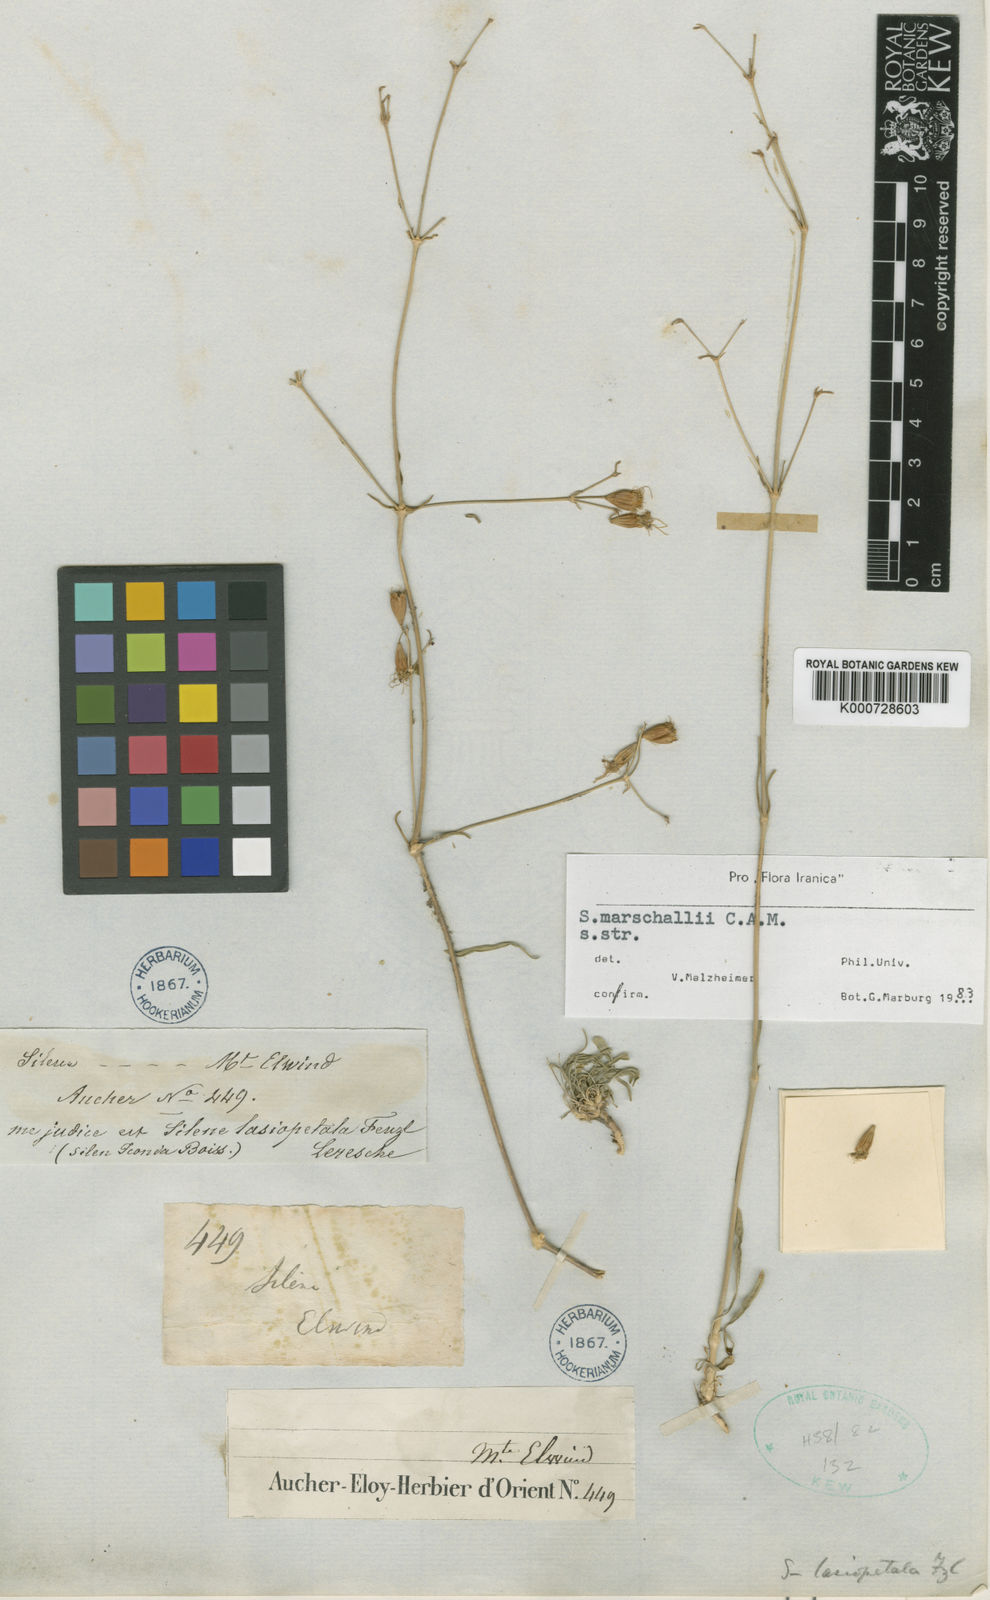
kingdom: Plantae
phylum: Tracheophyta
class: Magnoliopsida
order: Caryophyllales
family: Caryophyllaceae
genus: Silene
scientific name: Silene marschallii
